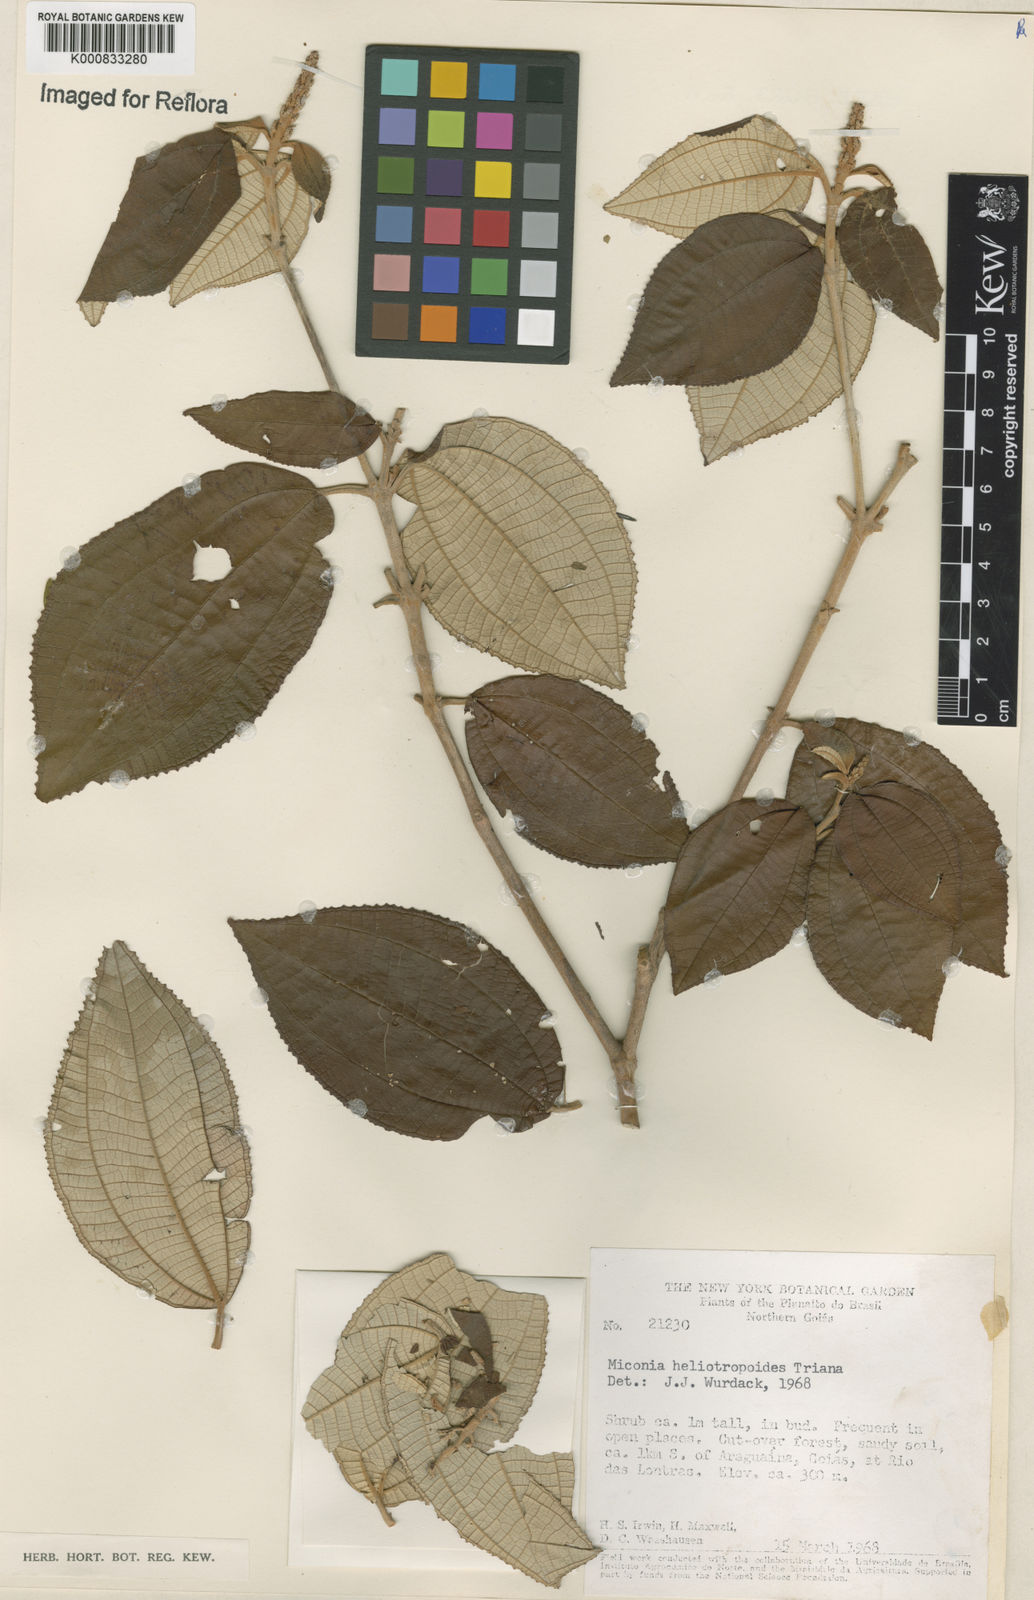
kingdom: Plantae
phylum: Tracheophyta
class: Magnoliopsida
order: Myrtales
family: Melastomataceae
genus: Miconia
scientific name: Miconia heliotropoides
